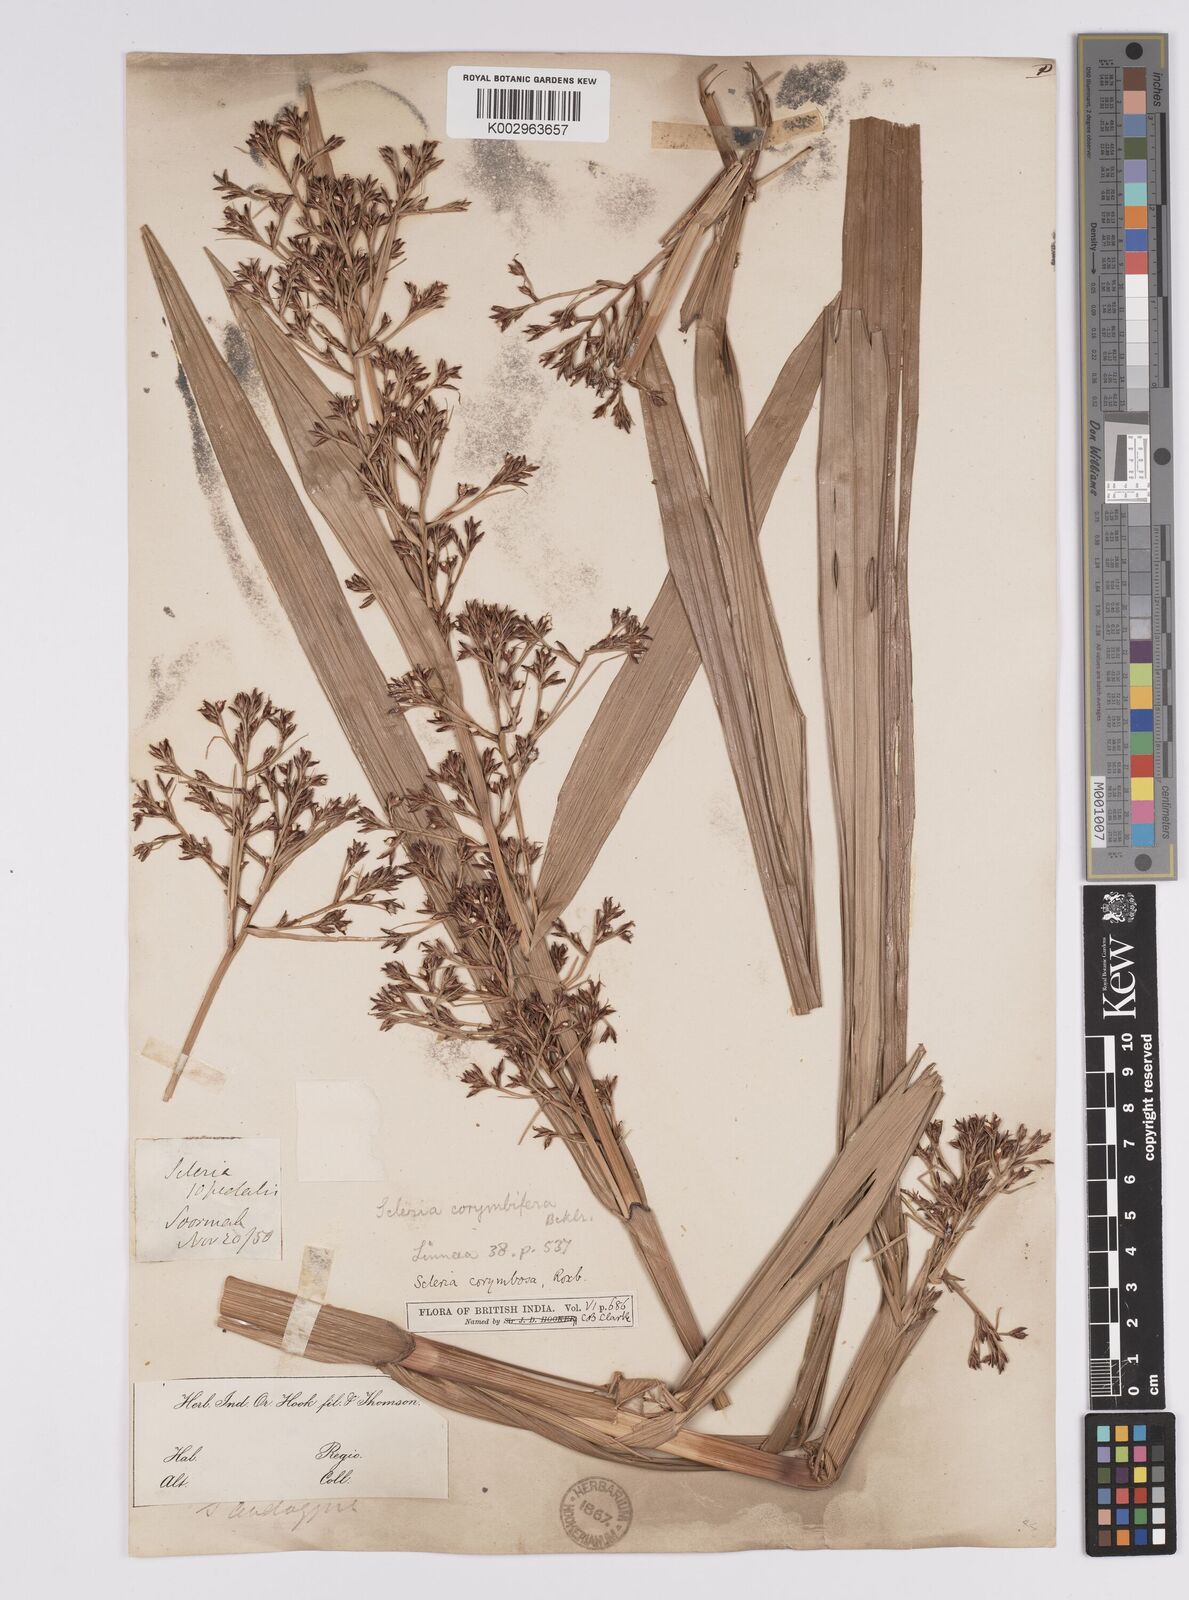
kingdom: Plantae
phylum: Tracheophyta
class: Liliopsida
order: Poales
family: Cyperaceae
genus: Scleria
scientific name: Scleria corymbosa
